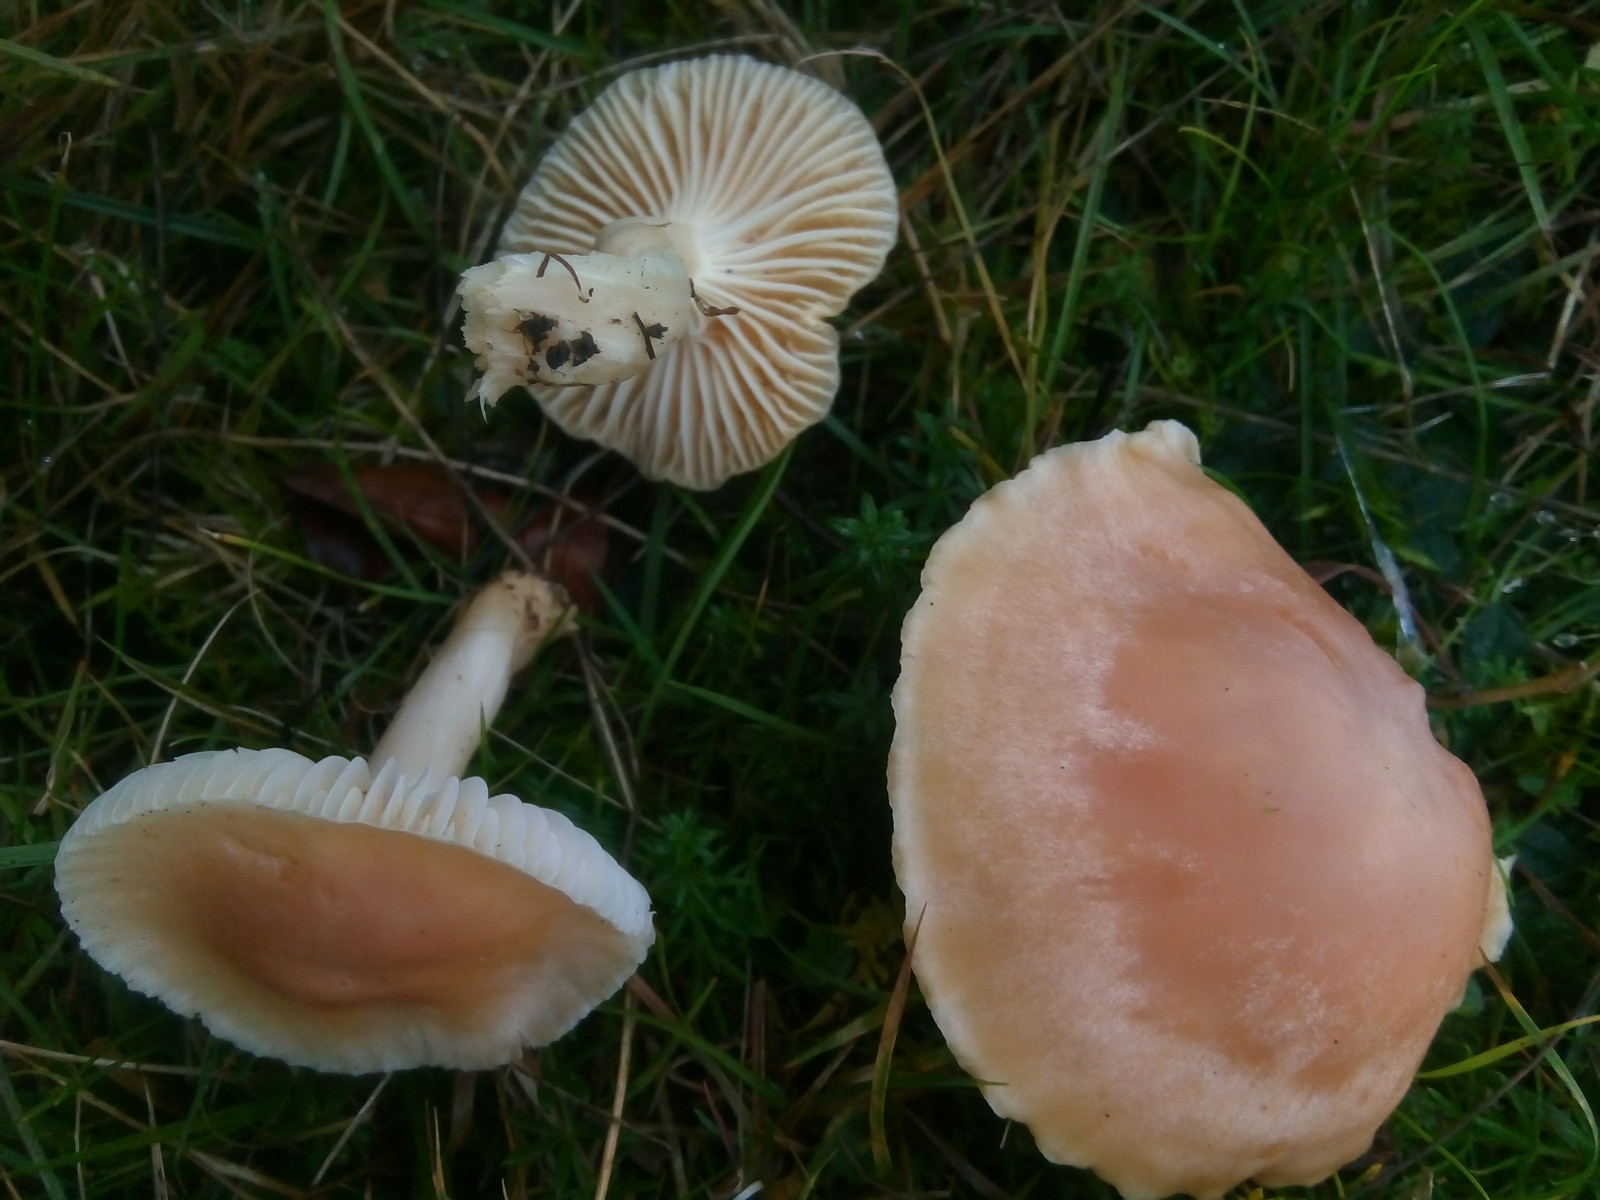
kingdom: Fungi
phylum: Basidiomycota
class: Agaricomycetes
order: Agaricales
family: Hygrophoraceae
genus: Cuphophyllus
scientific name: Cuphophyllus pratensis
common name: eng-vokshat
